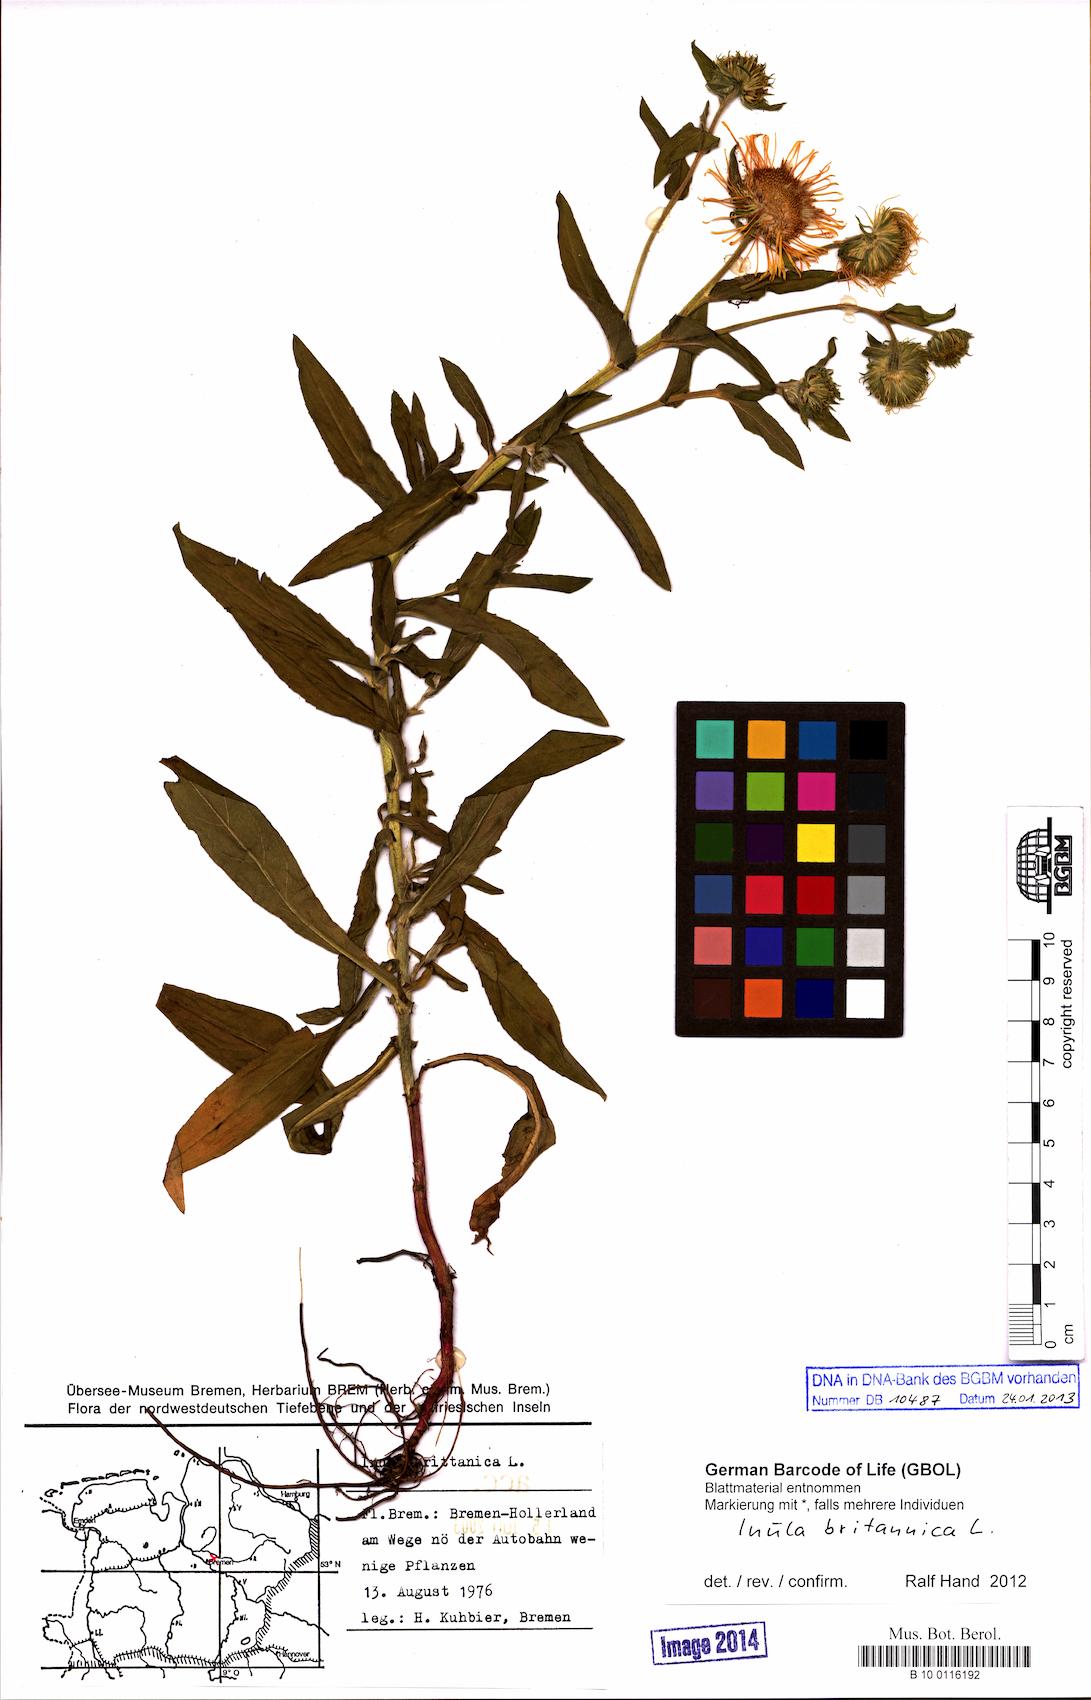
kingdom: Plantae
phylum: Tracheophyta
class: Magnoliopsida
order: Asterales
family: Asteraceae
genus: Pentanema
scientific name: Pentanema britannicum
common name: British elecampane
